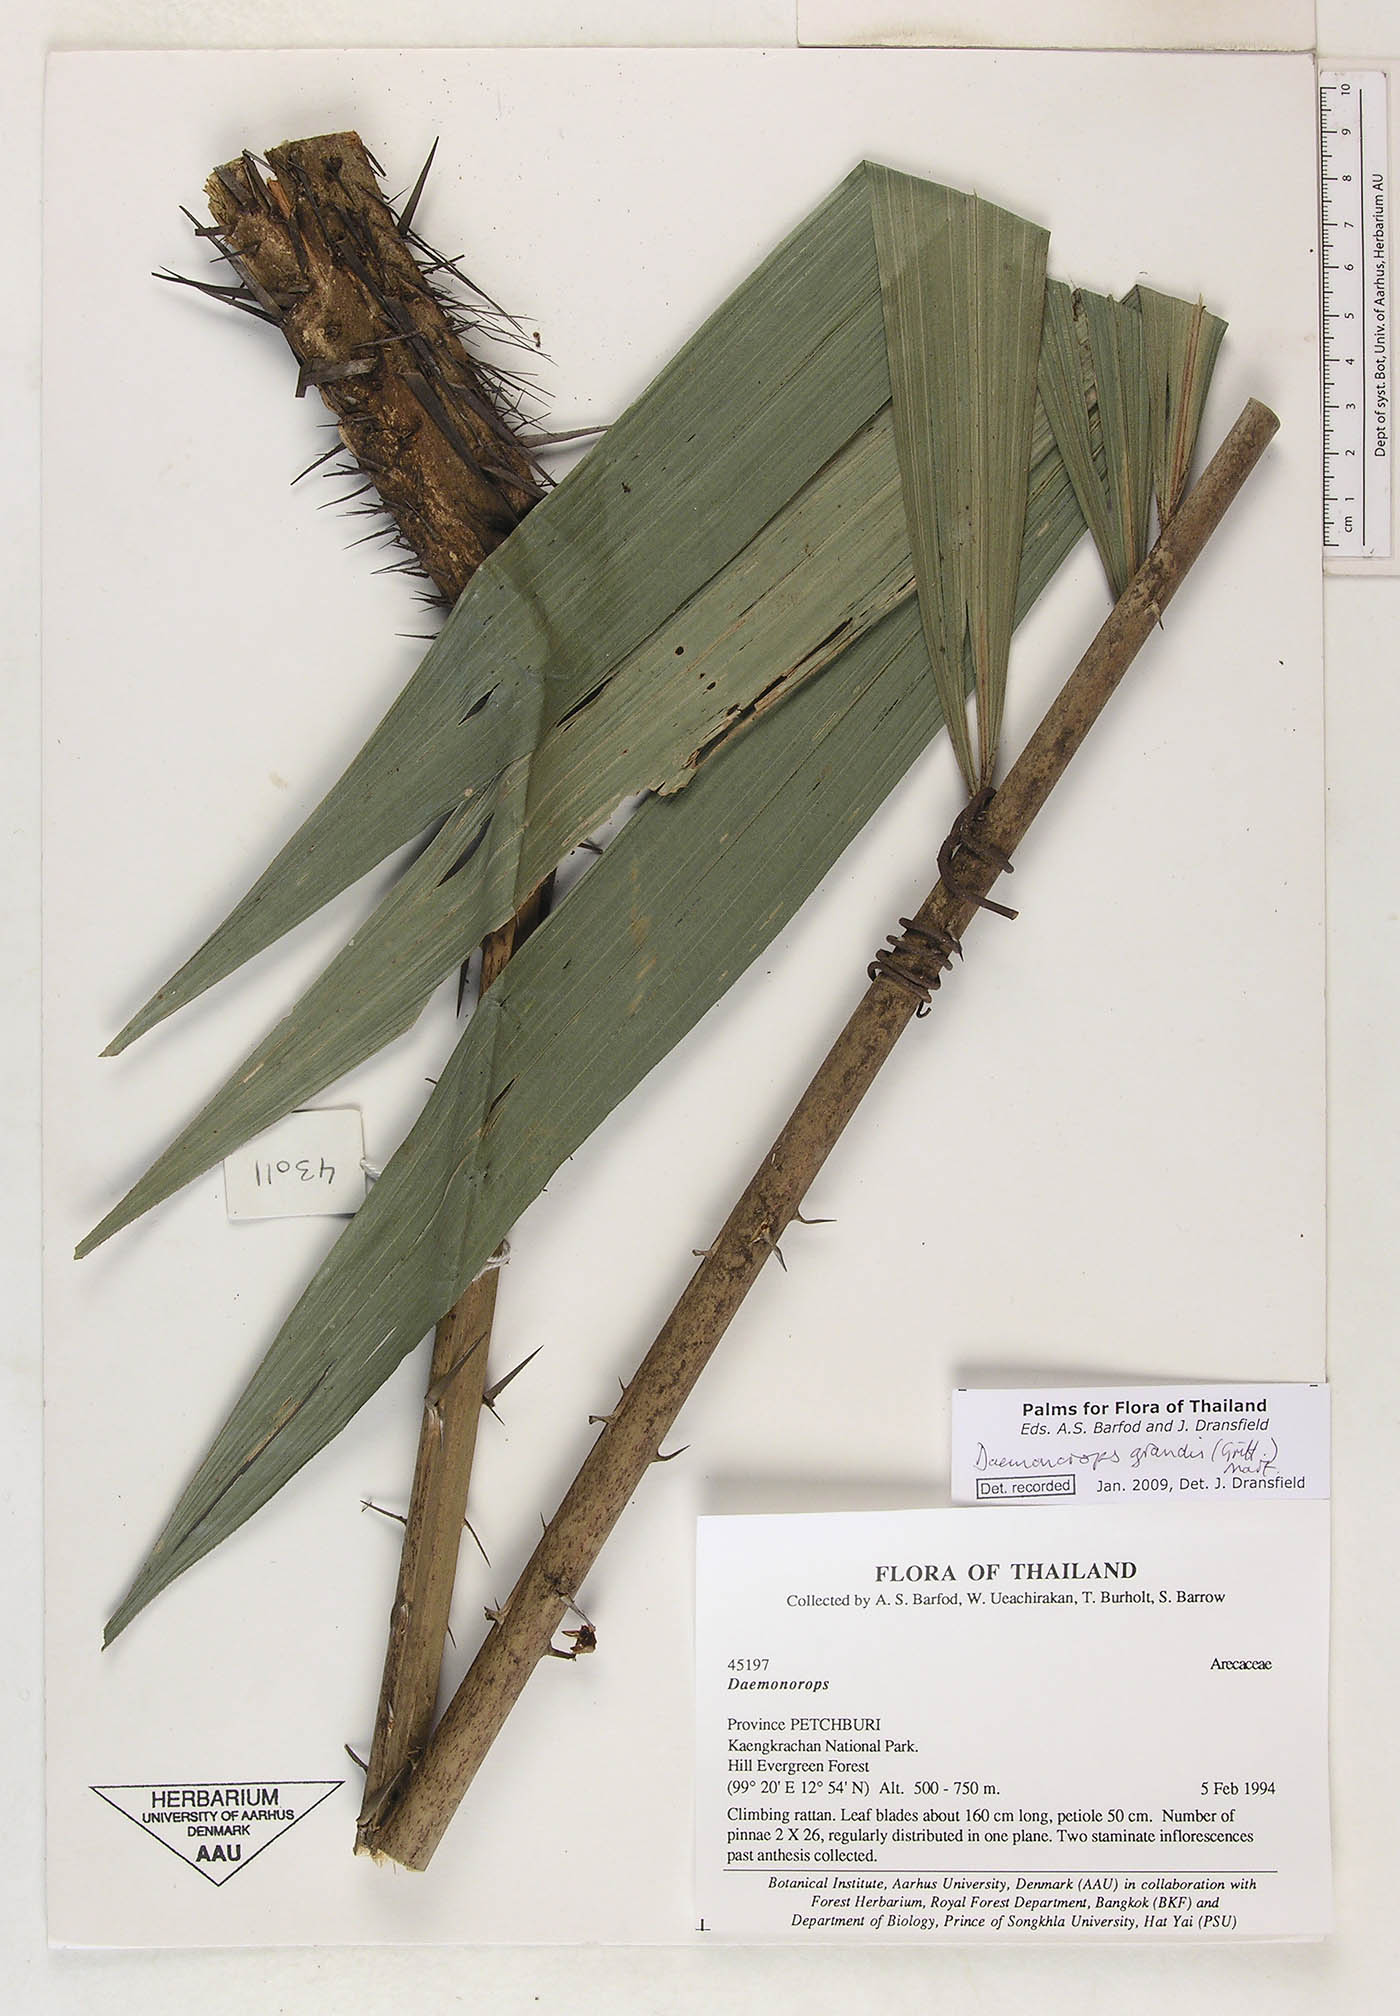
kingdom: Plantae
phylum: Tracheophyta
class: Liliopsida
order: Arecales
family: Arecaceae
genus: Calamus
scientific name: Calamus melanochaetes
